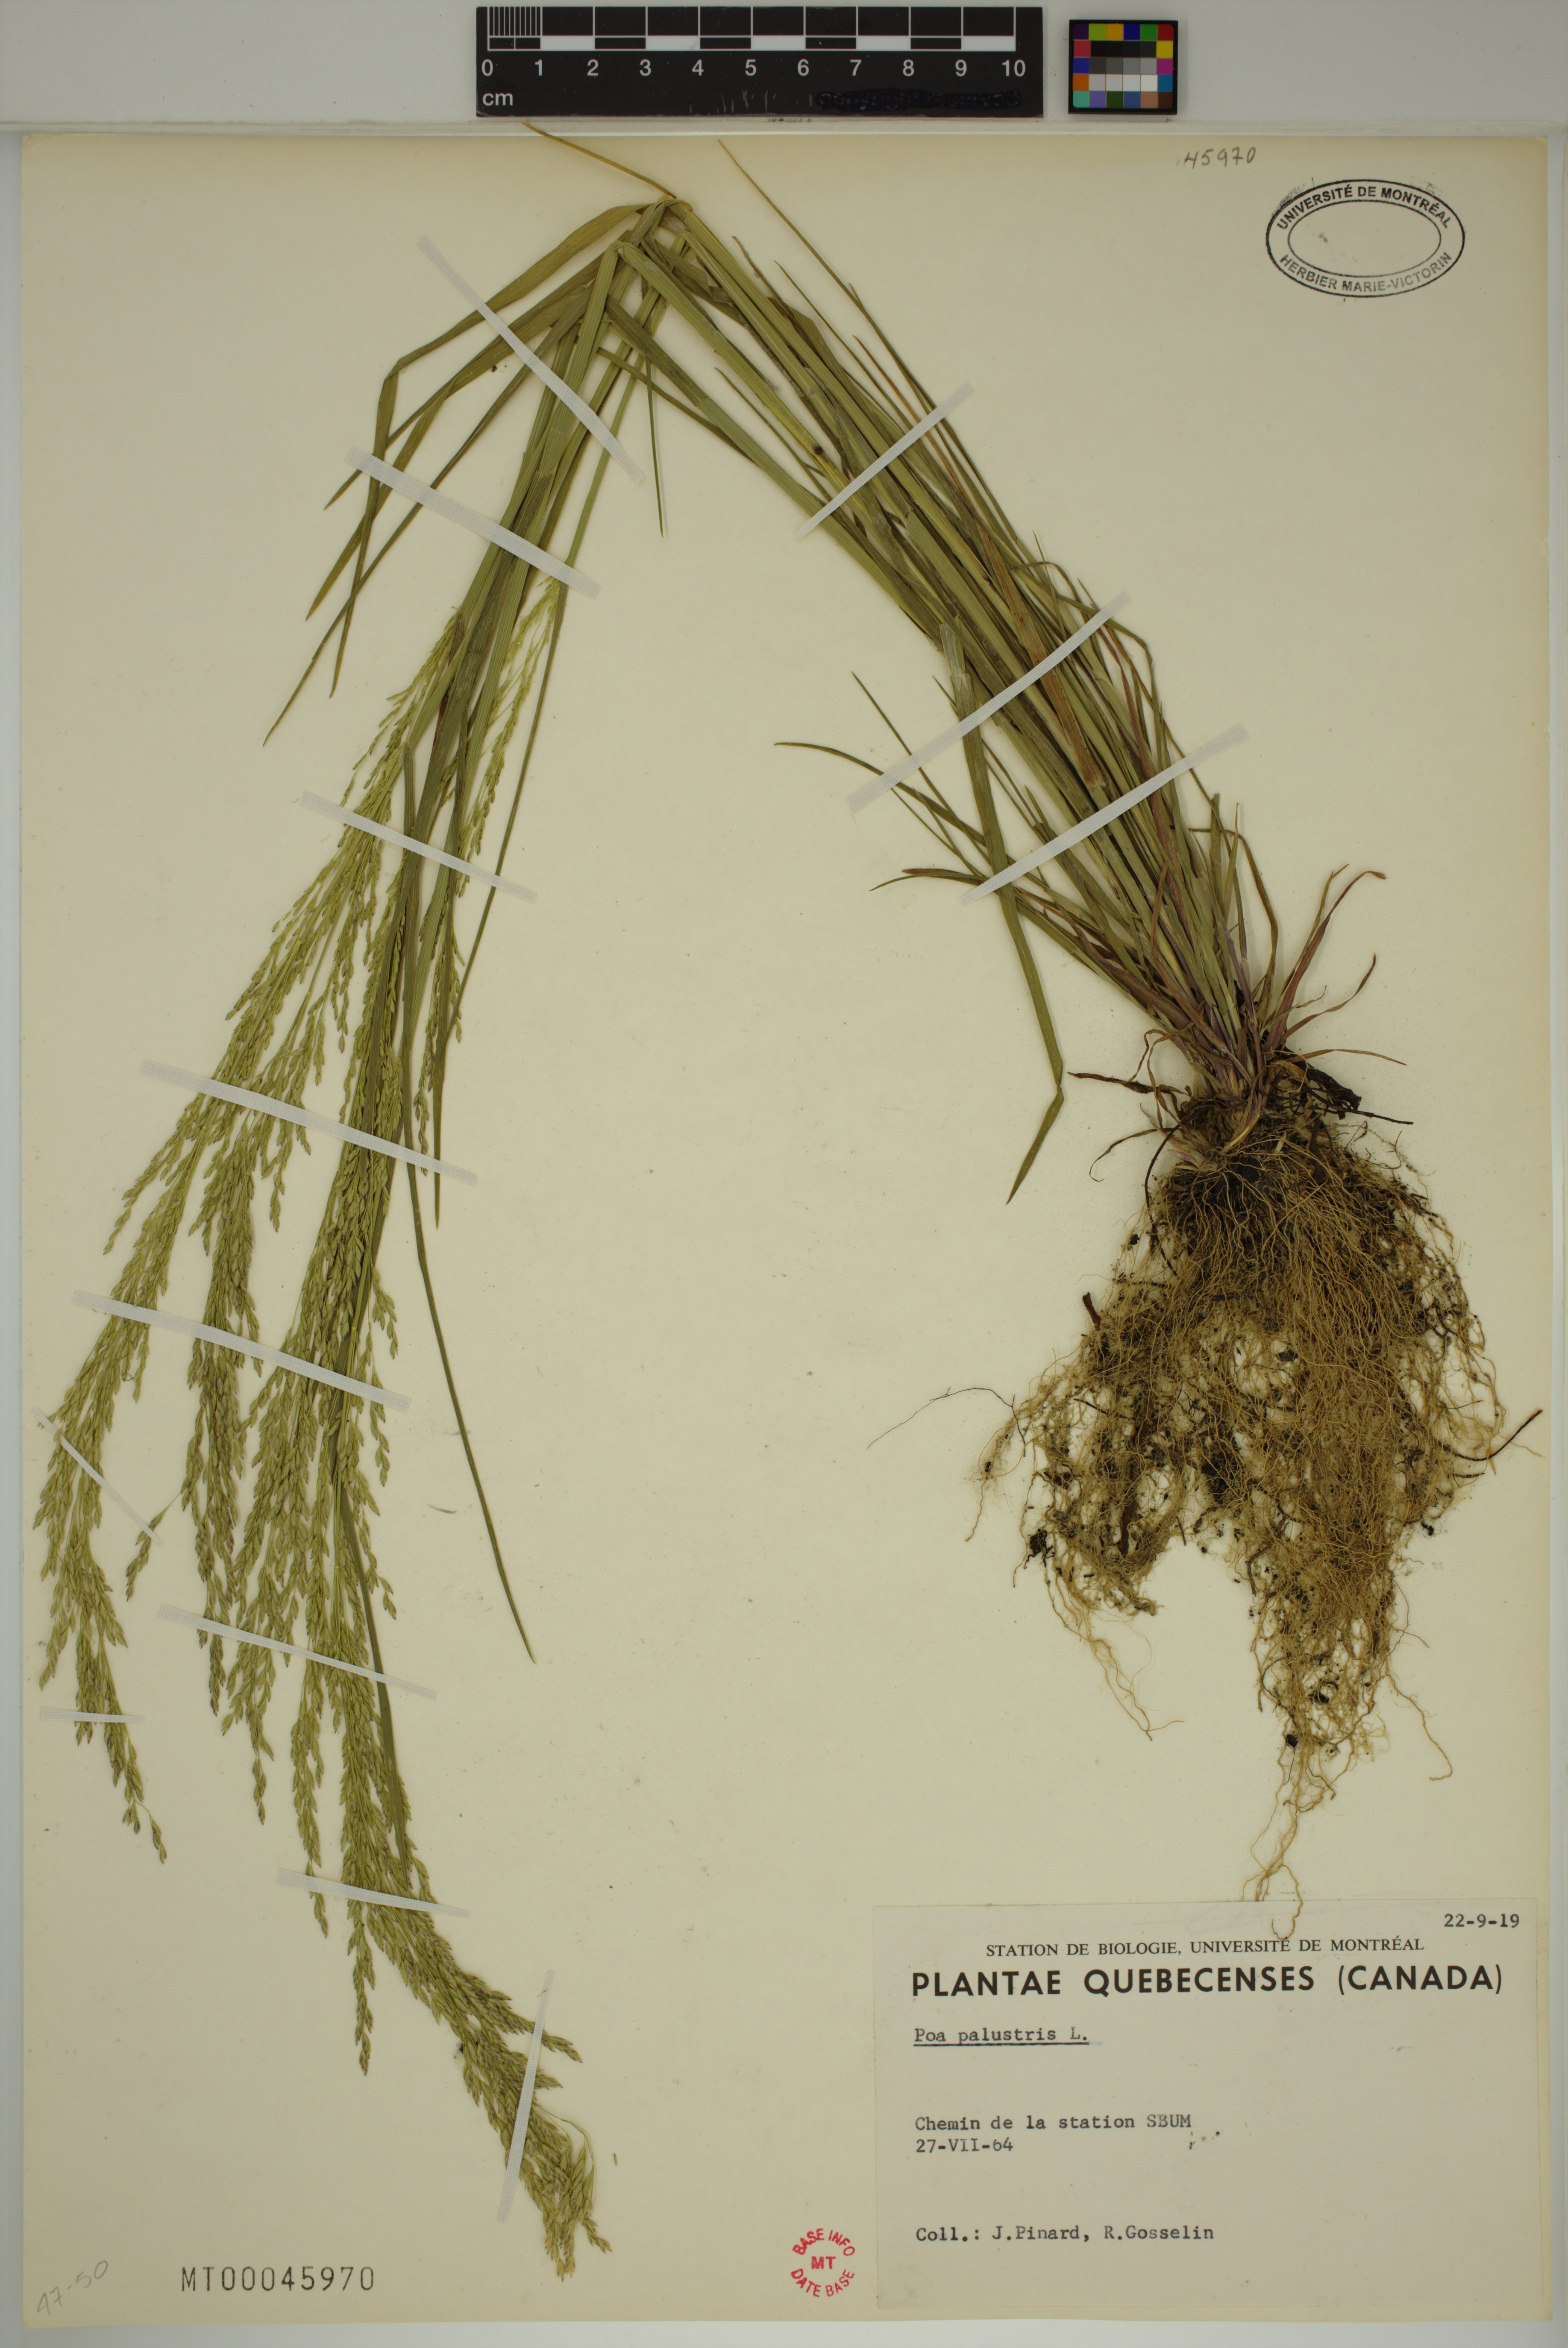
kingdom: Plantae
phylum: Tracheophyta
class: Liliopsida
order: Poales
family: Poaceae
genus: Poa
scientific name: Poa palustris
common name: Swamp meadow-grass
